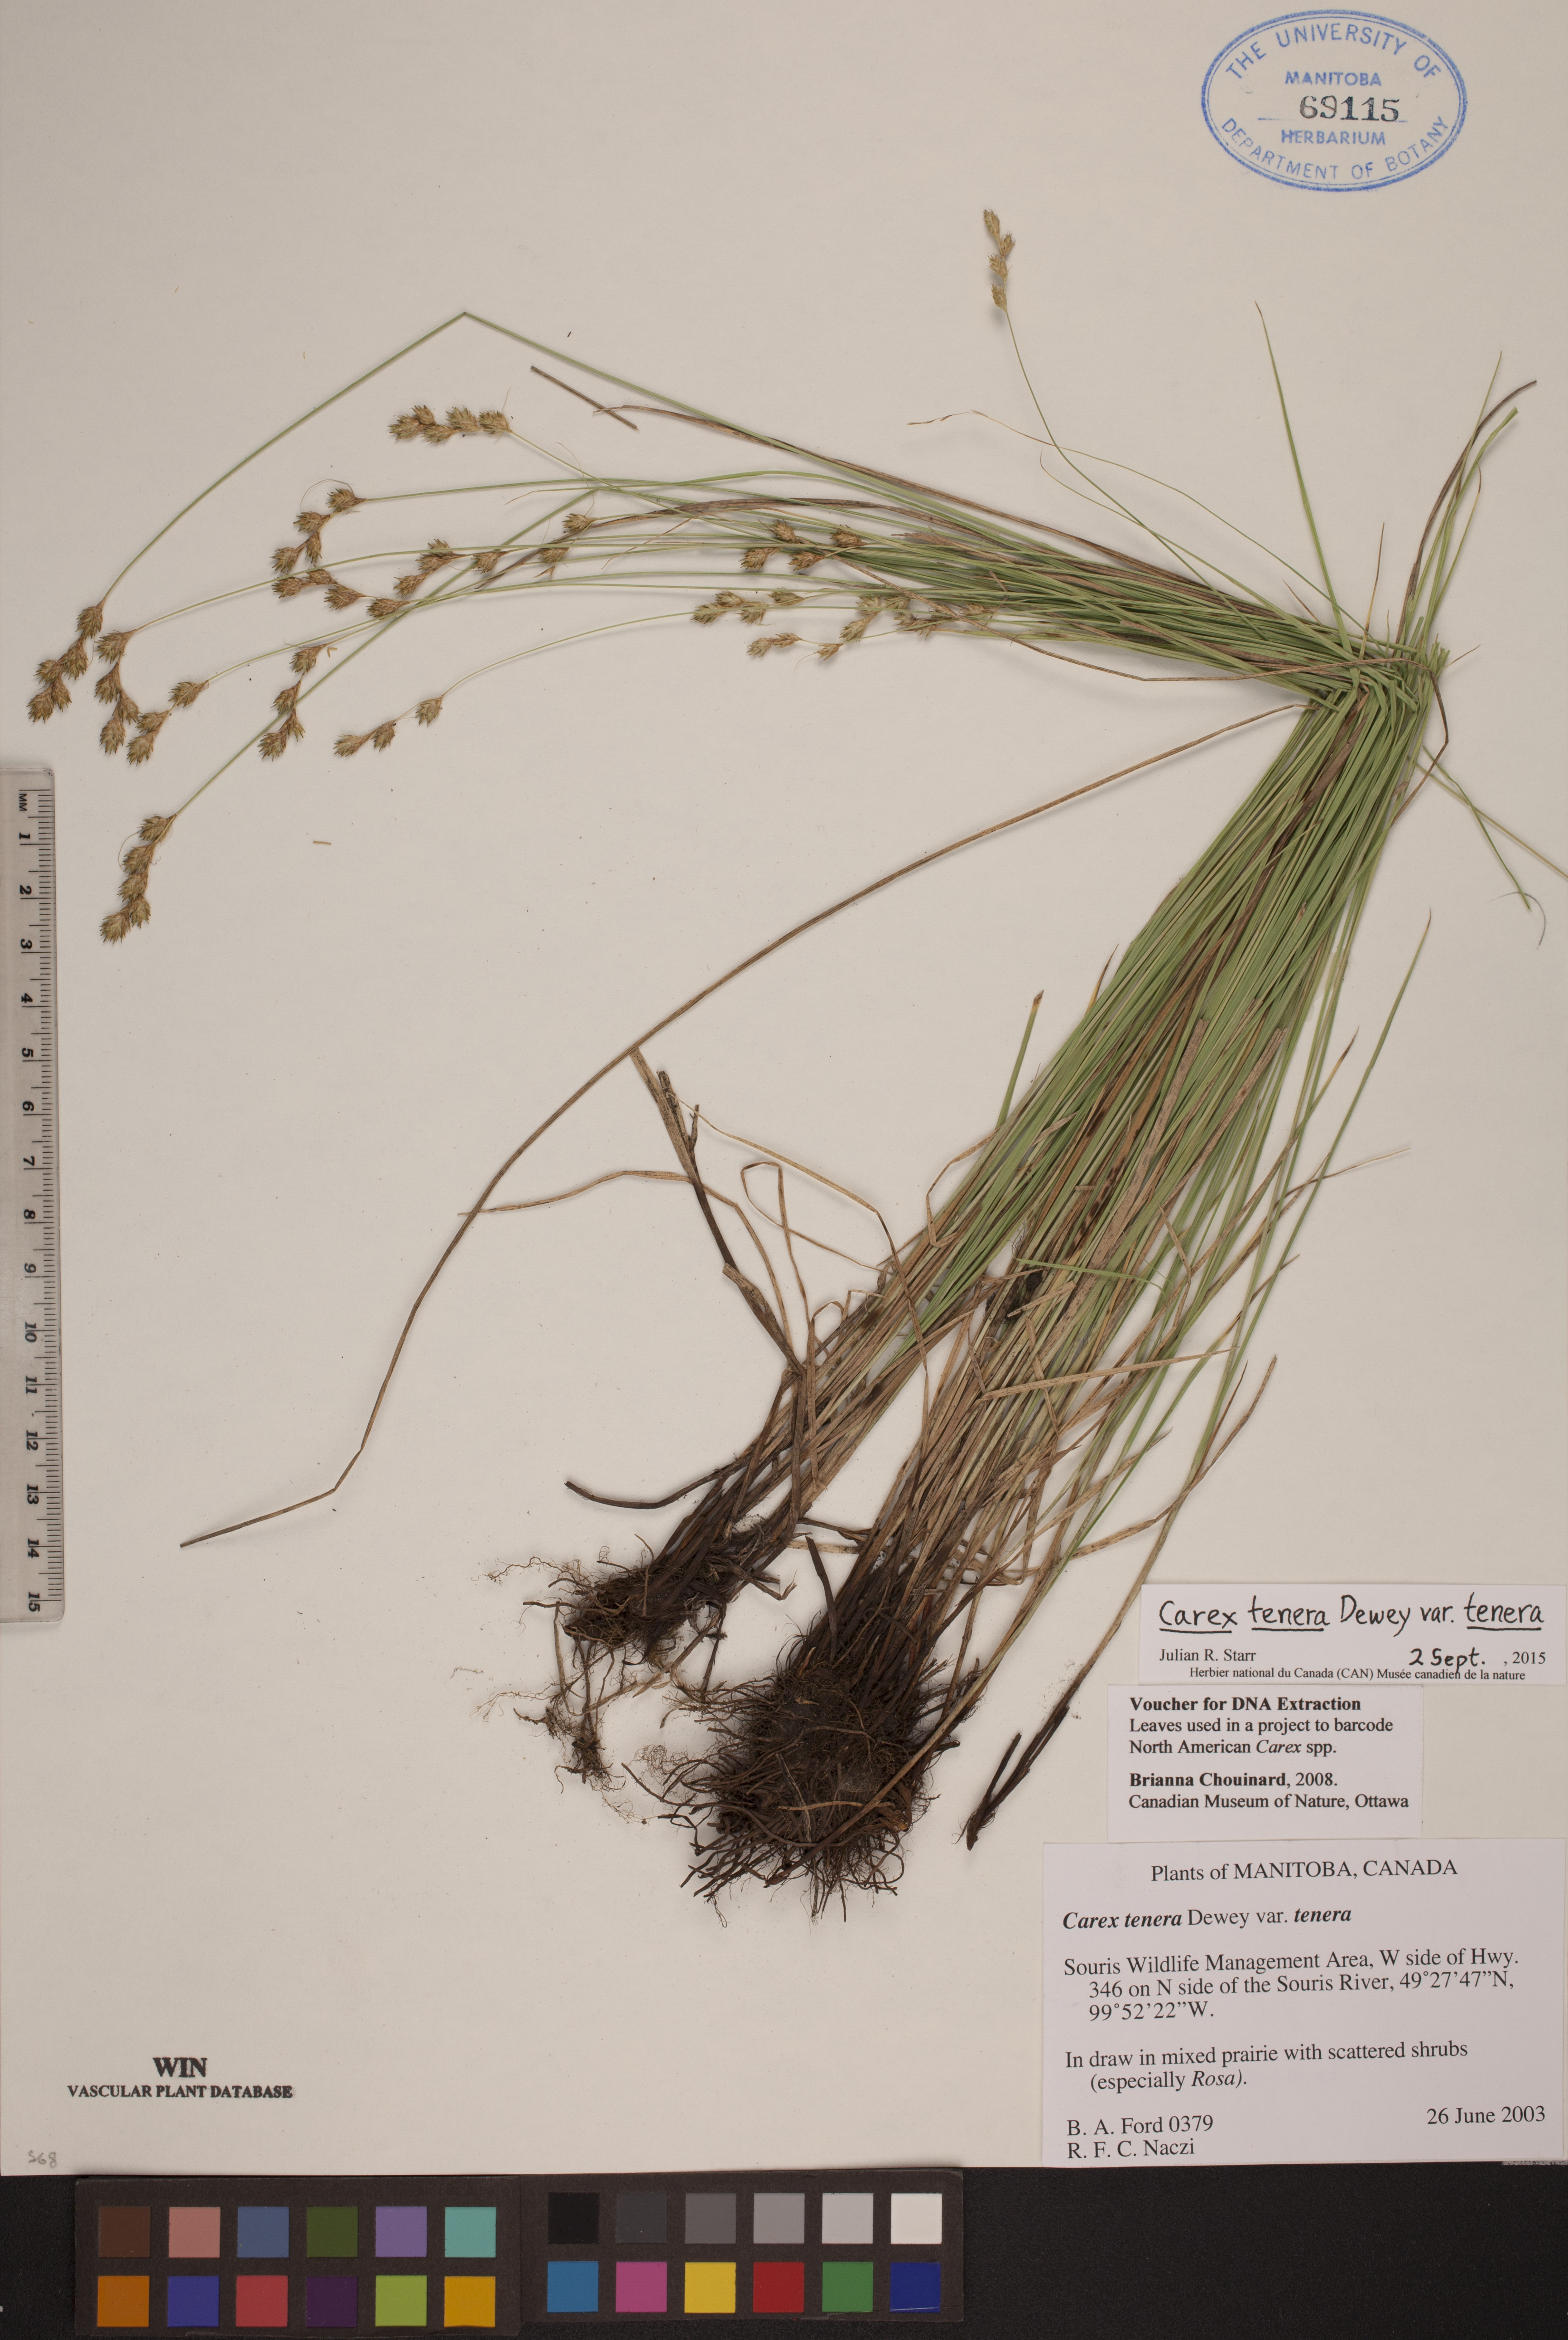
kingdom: Plantae
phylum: Tracheophyta
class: Liliopsida
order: Poales
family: Cyperaceae
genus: Carex
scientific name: Carex tenera
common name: Broad-fruited sedge
